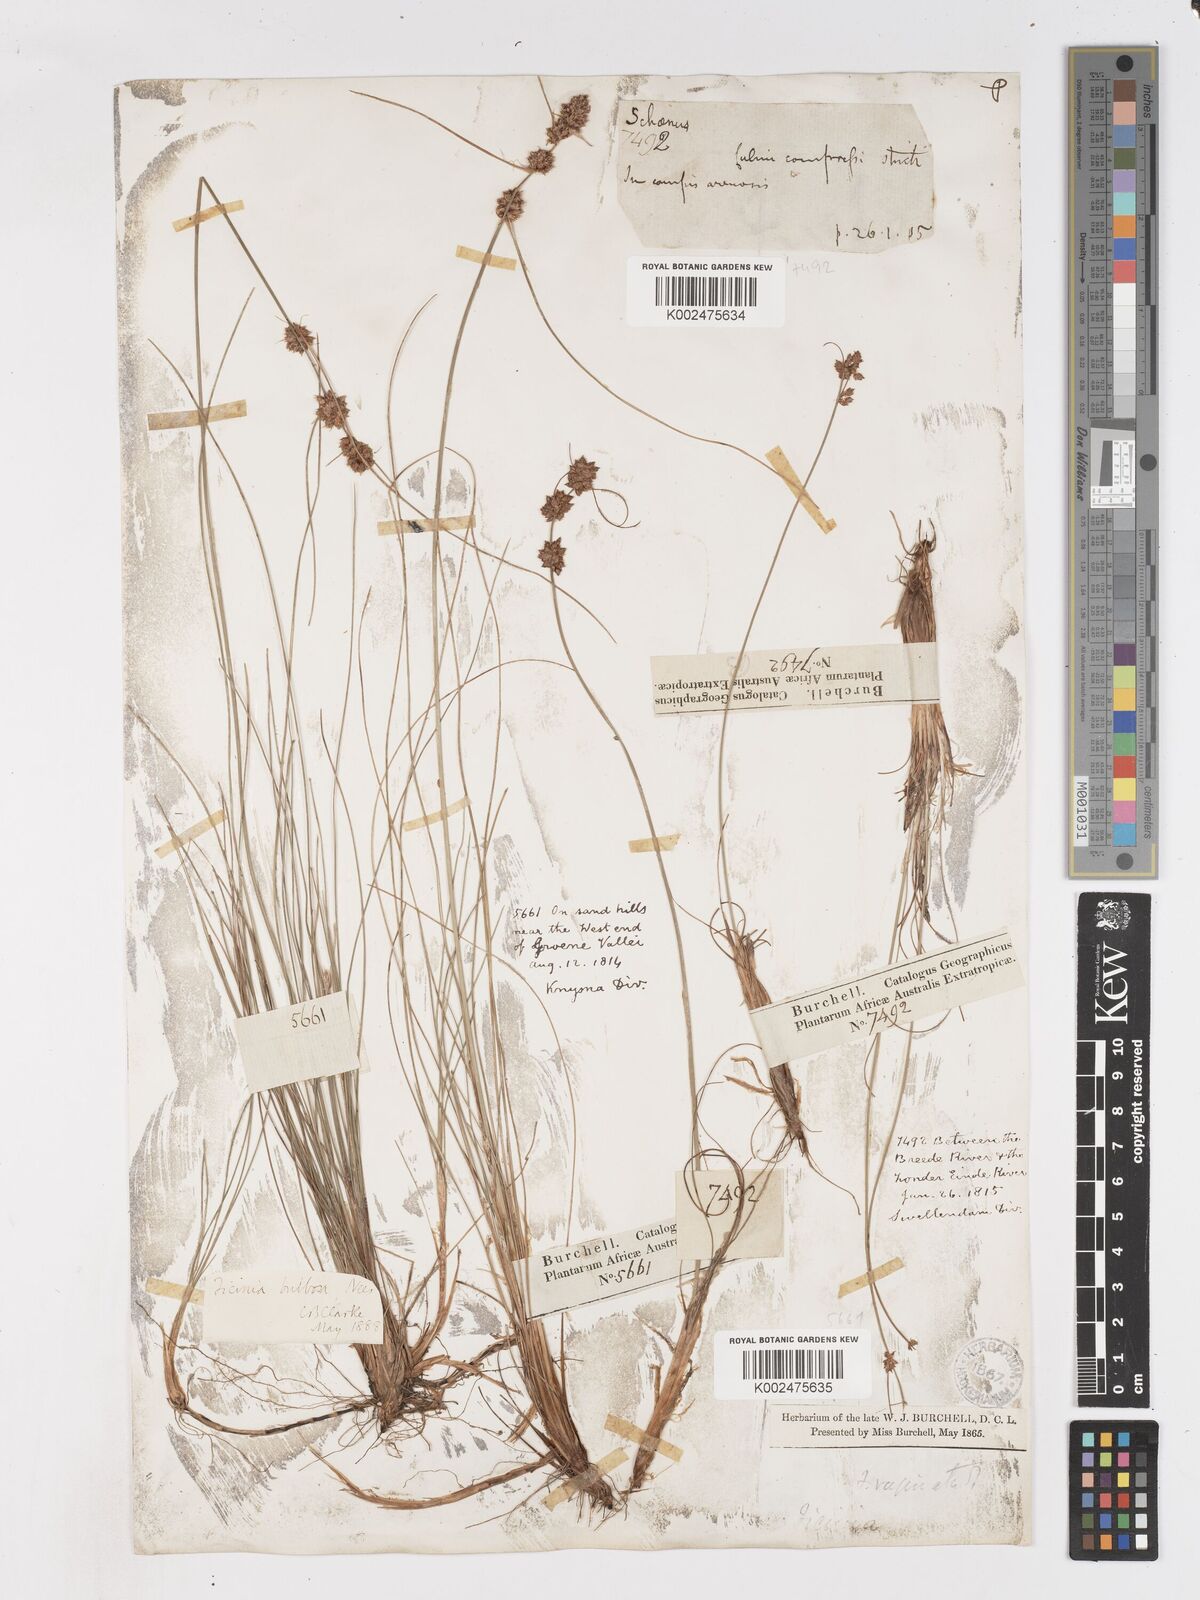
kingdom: Plantae
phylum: Tracheophyta
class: Liliopsida
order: Poales
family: Cyperaceae
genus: Ficinia
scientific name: Ficinia bulbosa
